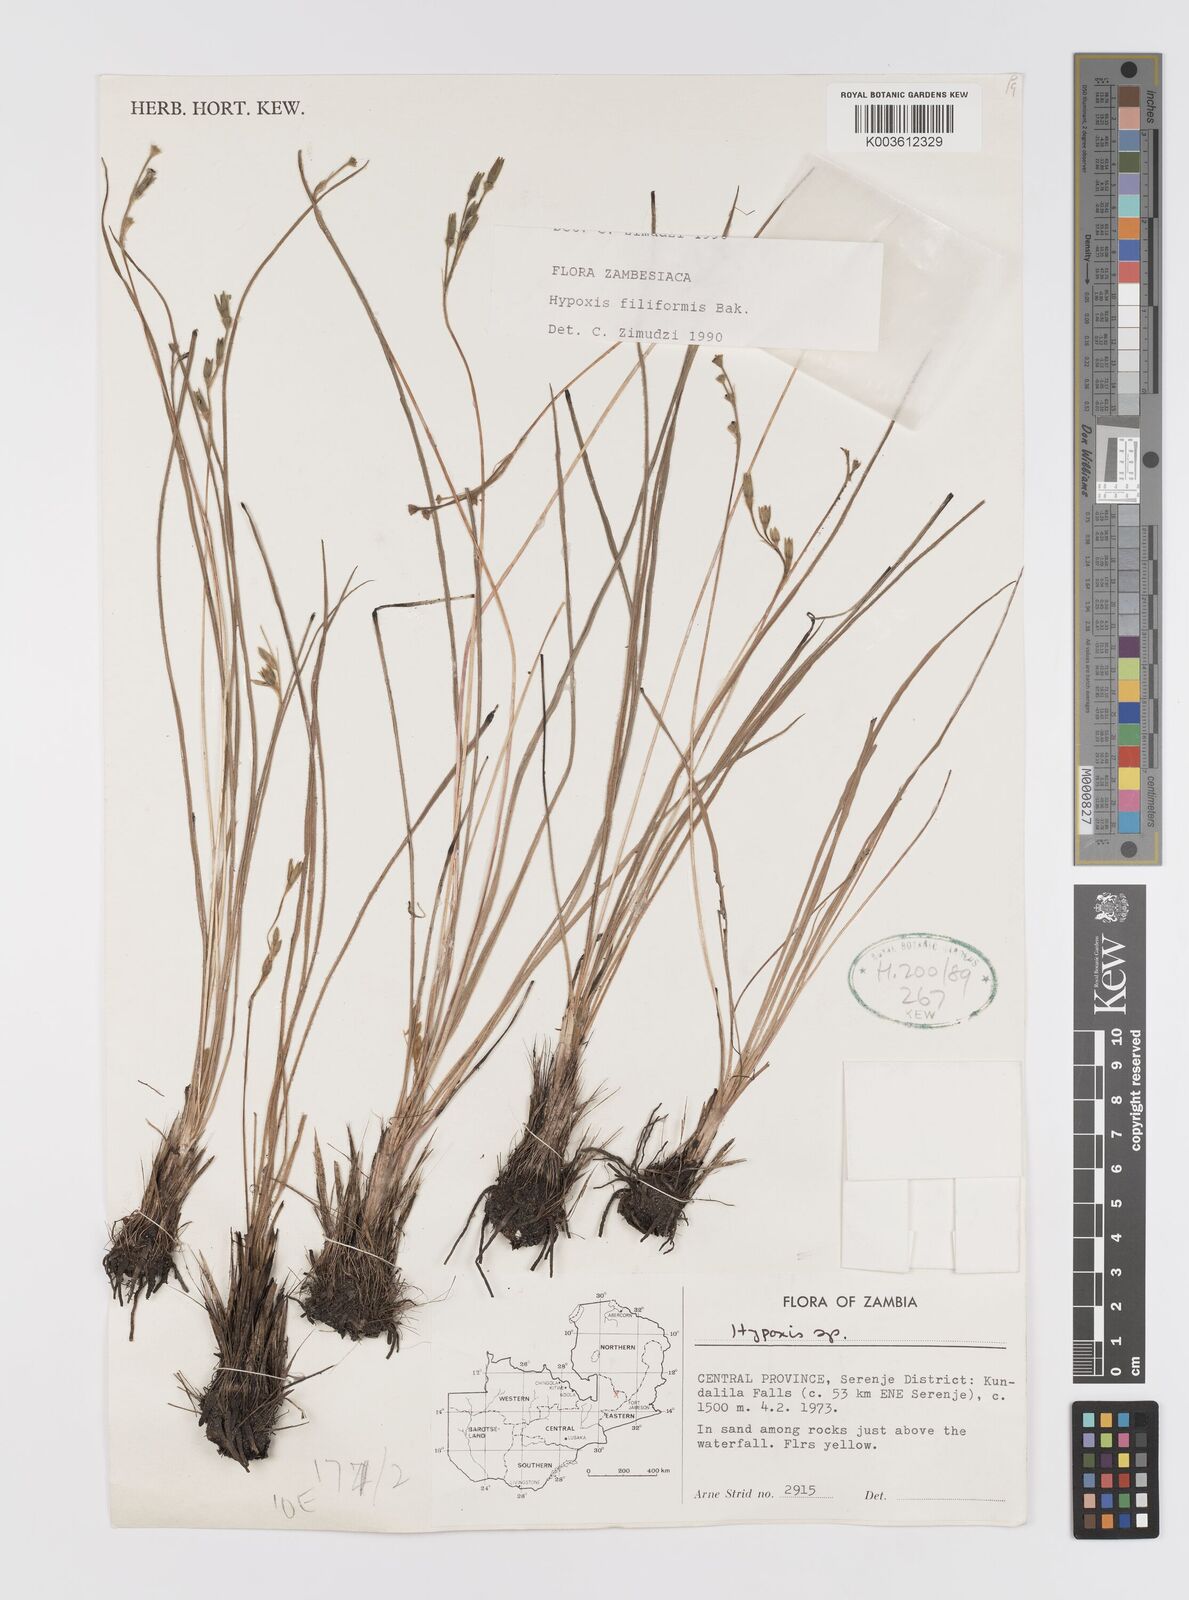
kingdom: Plantae
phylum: Tracheophyta
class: Liliopsida
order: Asparagales
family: Hypoxidaceae
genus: Hypoxis
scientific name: Hypoxis filiformis
